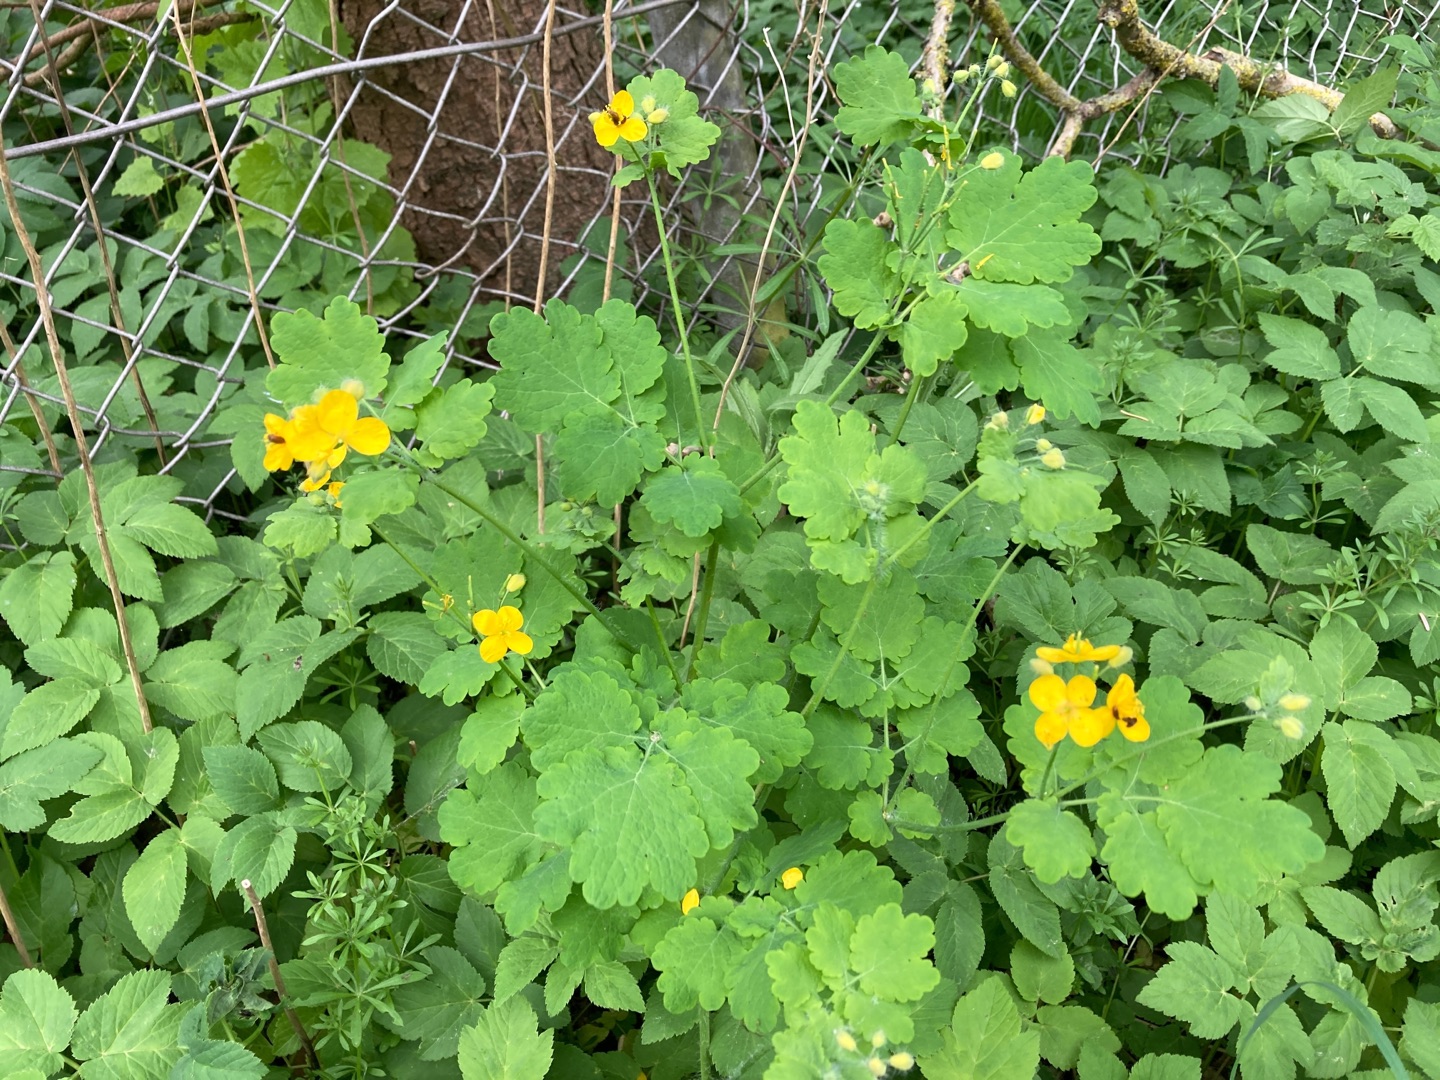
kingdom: Plantae
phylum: Tracheophyta
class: Magnoliopsida
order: Ranunculales
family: Papaveraceae
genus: Chelidonium
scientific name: Chelidonium majus
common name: Svaleurt
